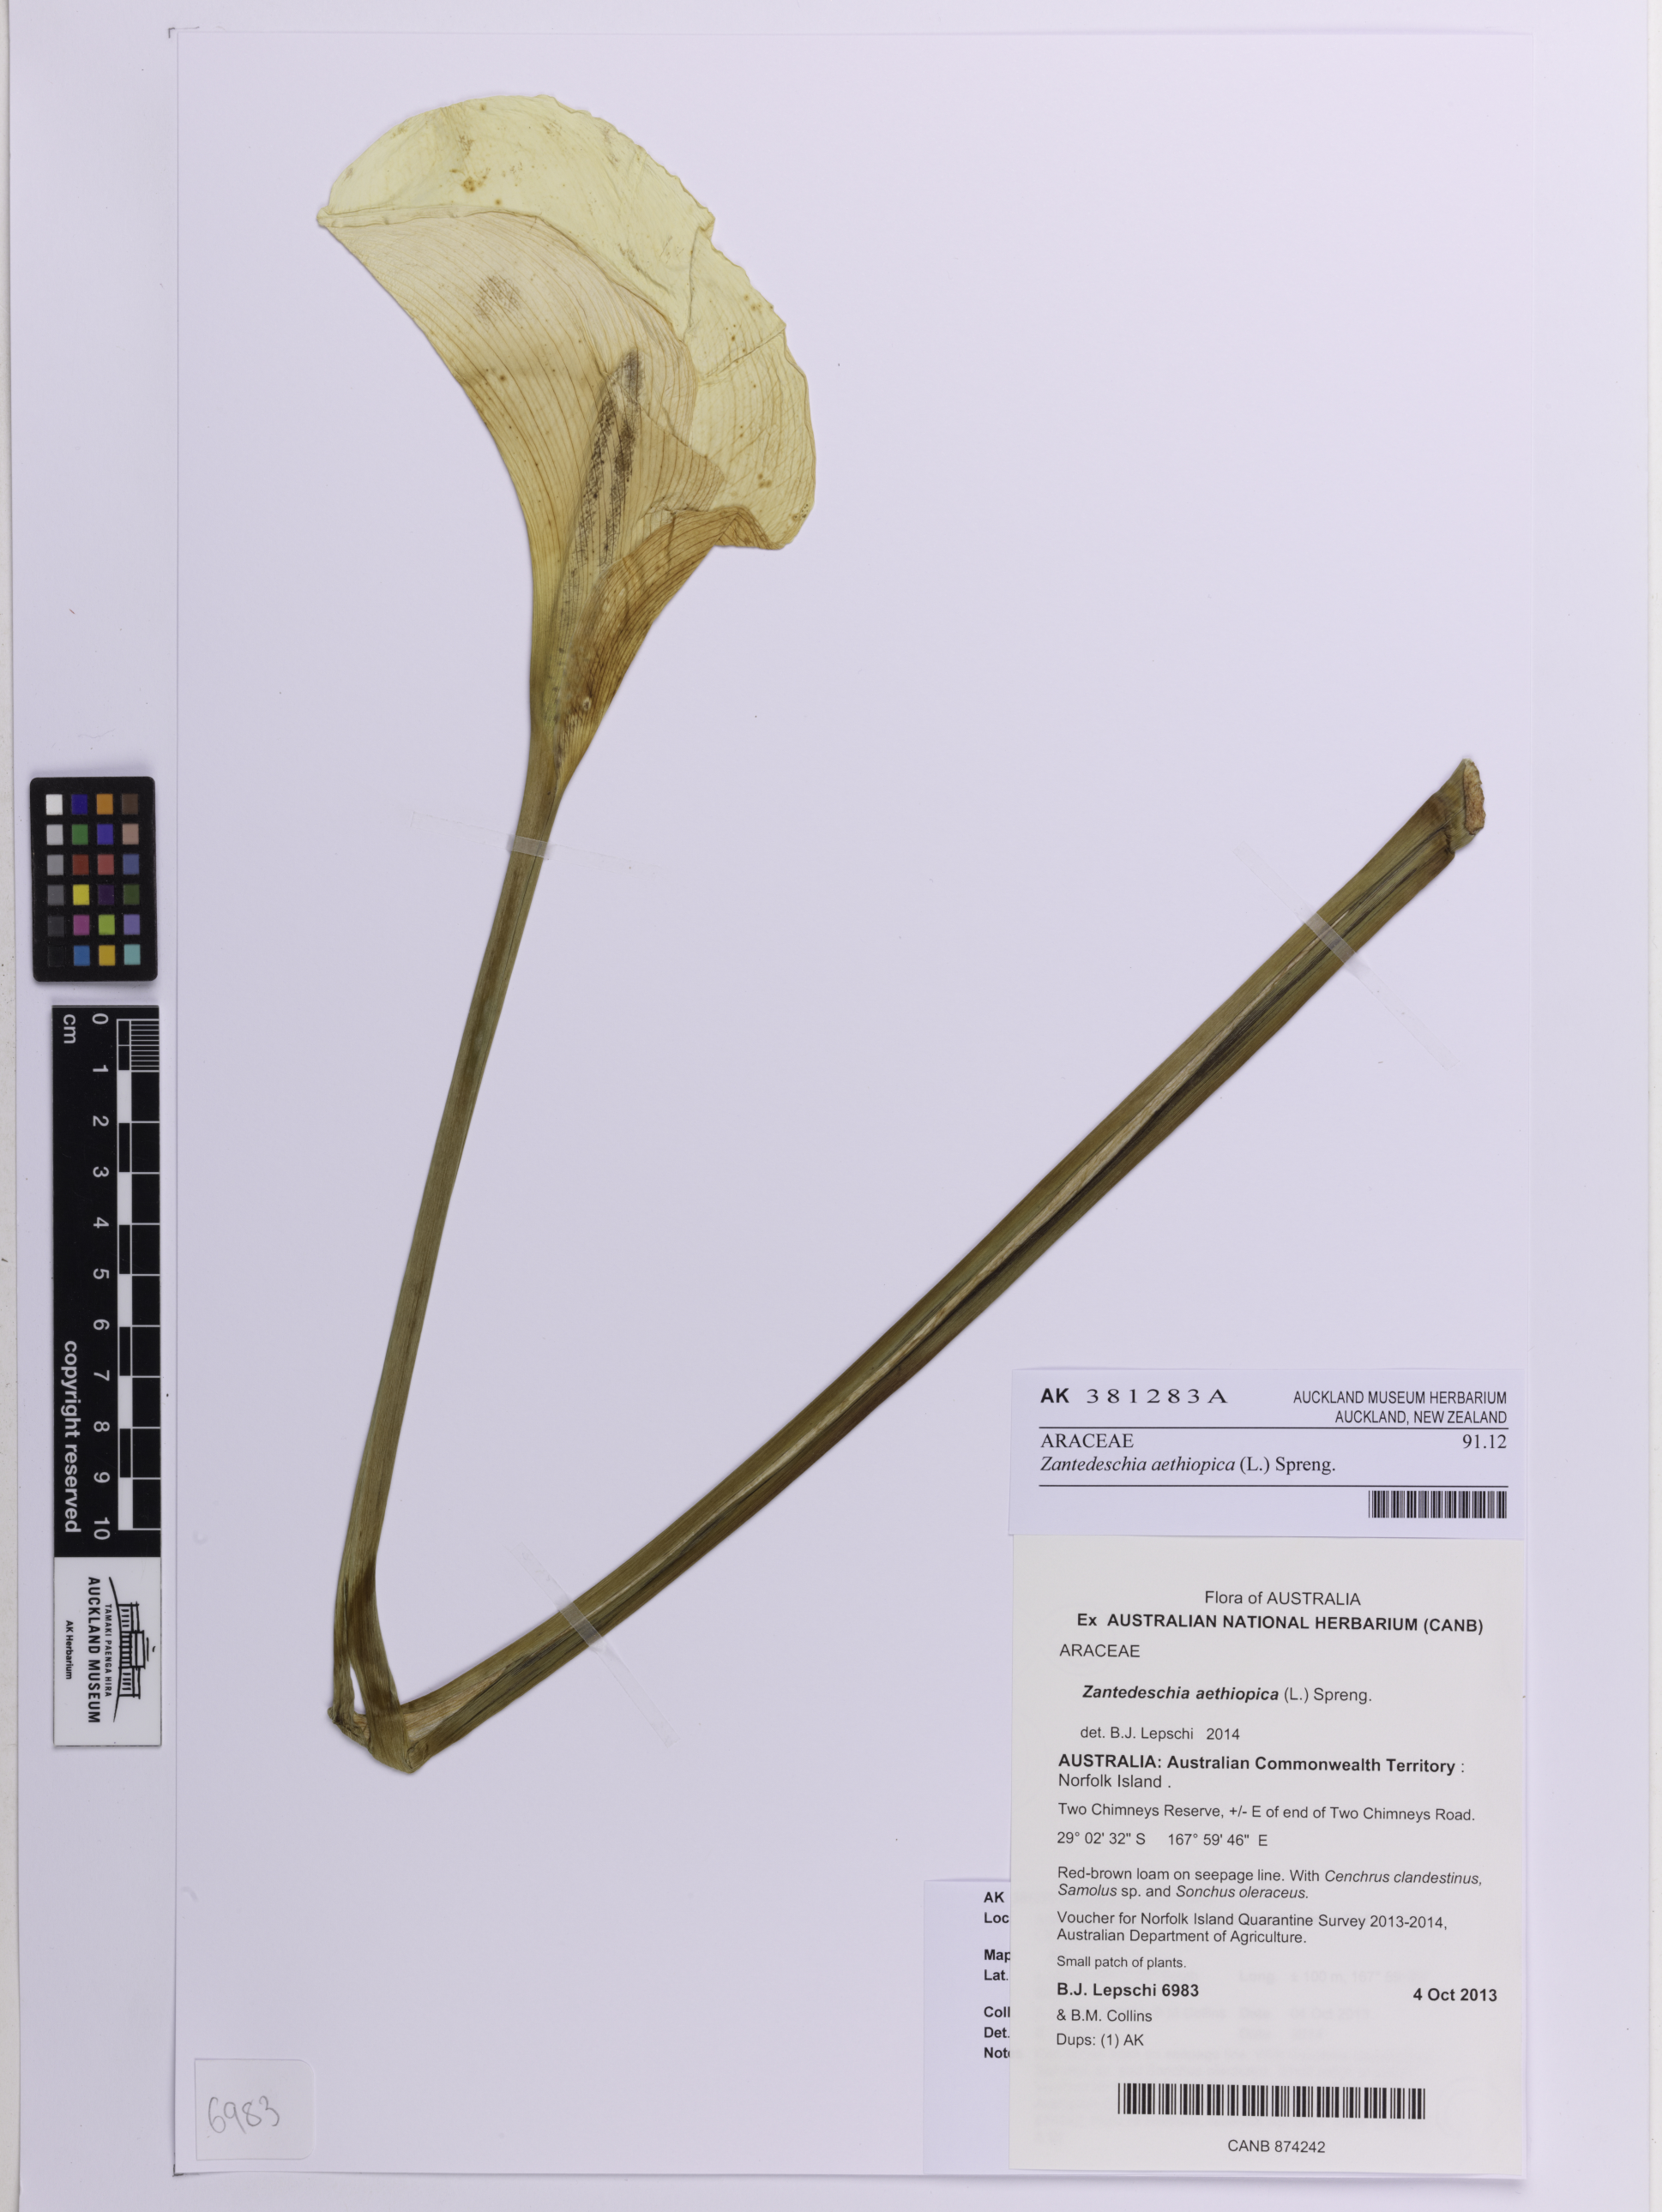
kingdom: Plantae
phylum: Tracheophyta
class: Liliopsida
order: Alismatales
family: Araceae
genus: Zantedeschia
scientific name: Zantedeschia aethiopica
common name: Altar-lily
